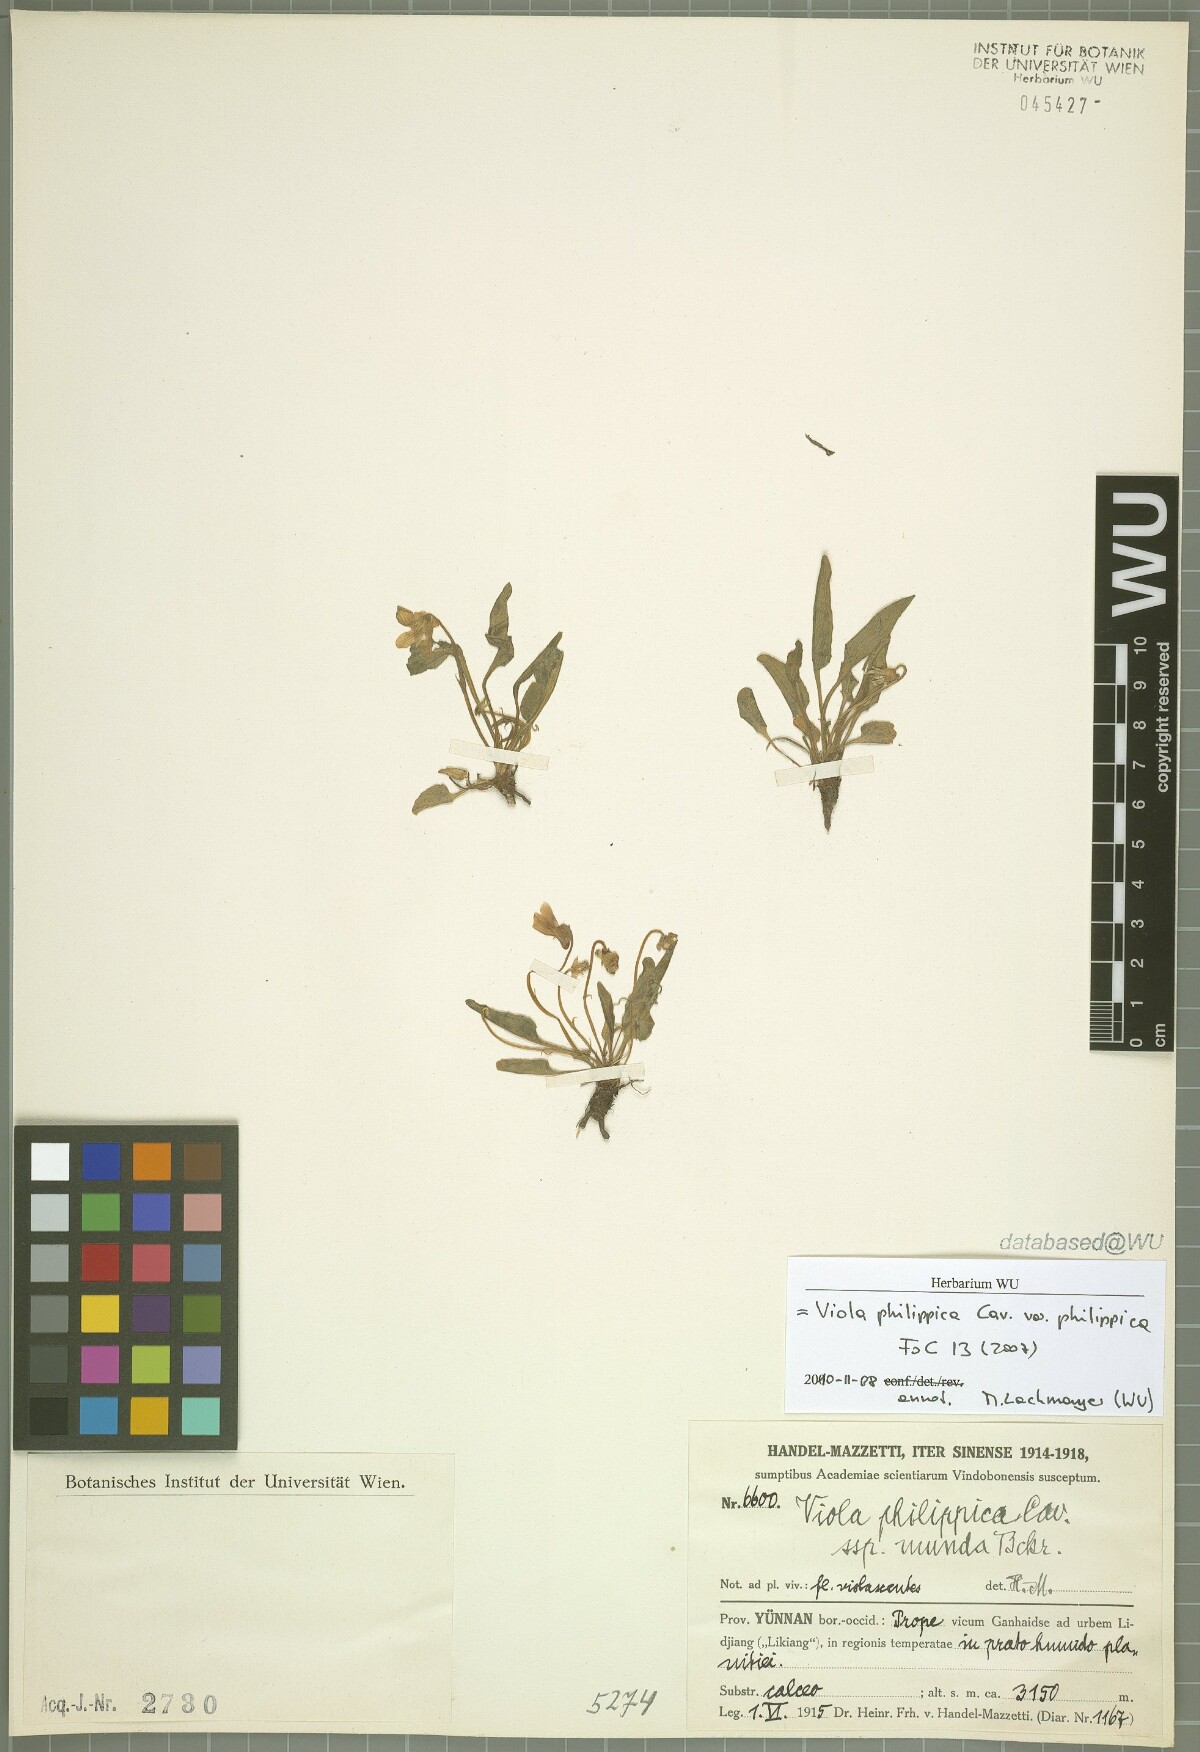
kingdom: Plantae
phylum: Tracheophyta
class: Magnoliopsida
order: Malpighiales
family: Violaceae
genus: Viola
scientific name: Viola philippica
